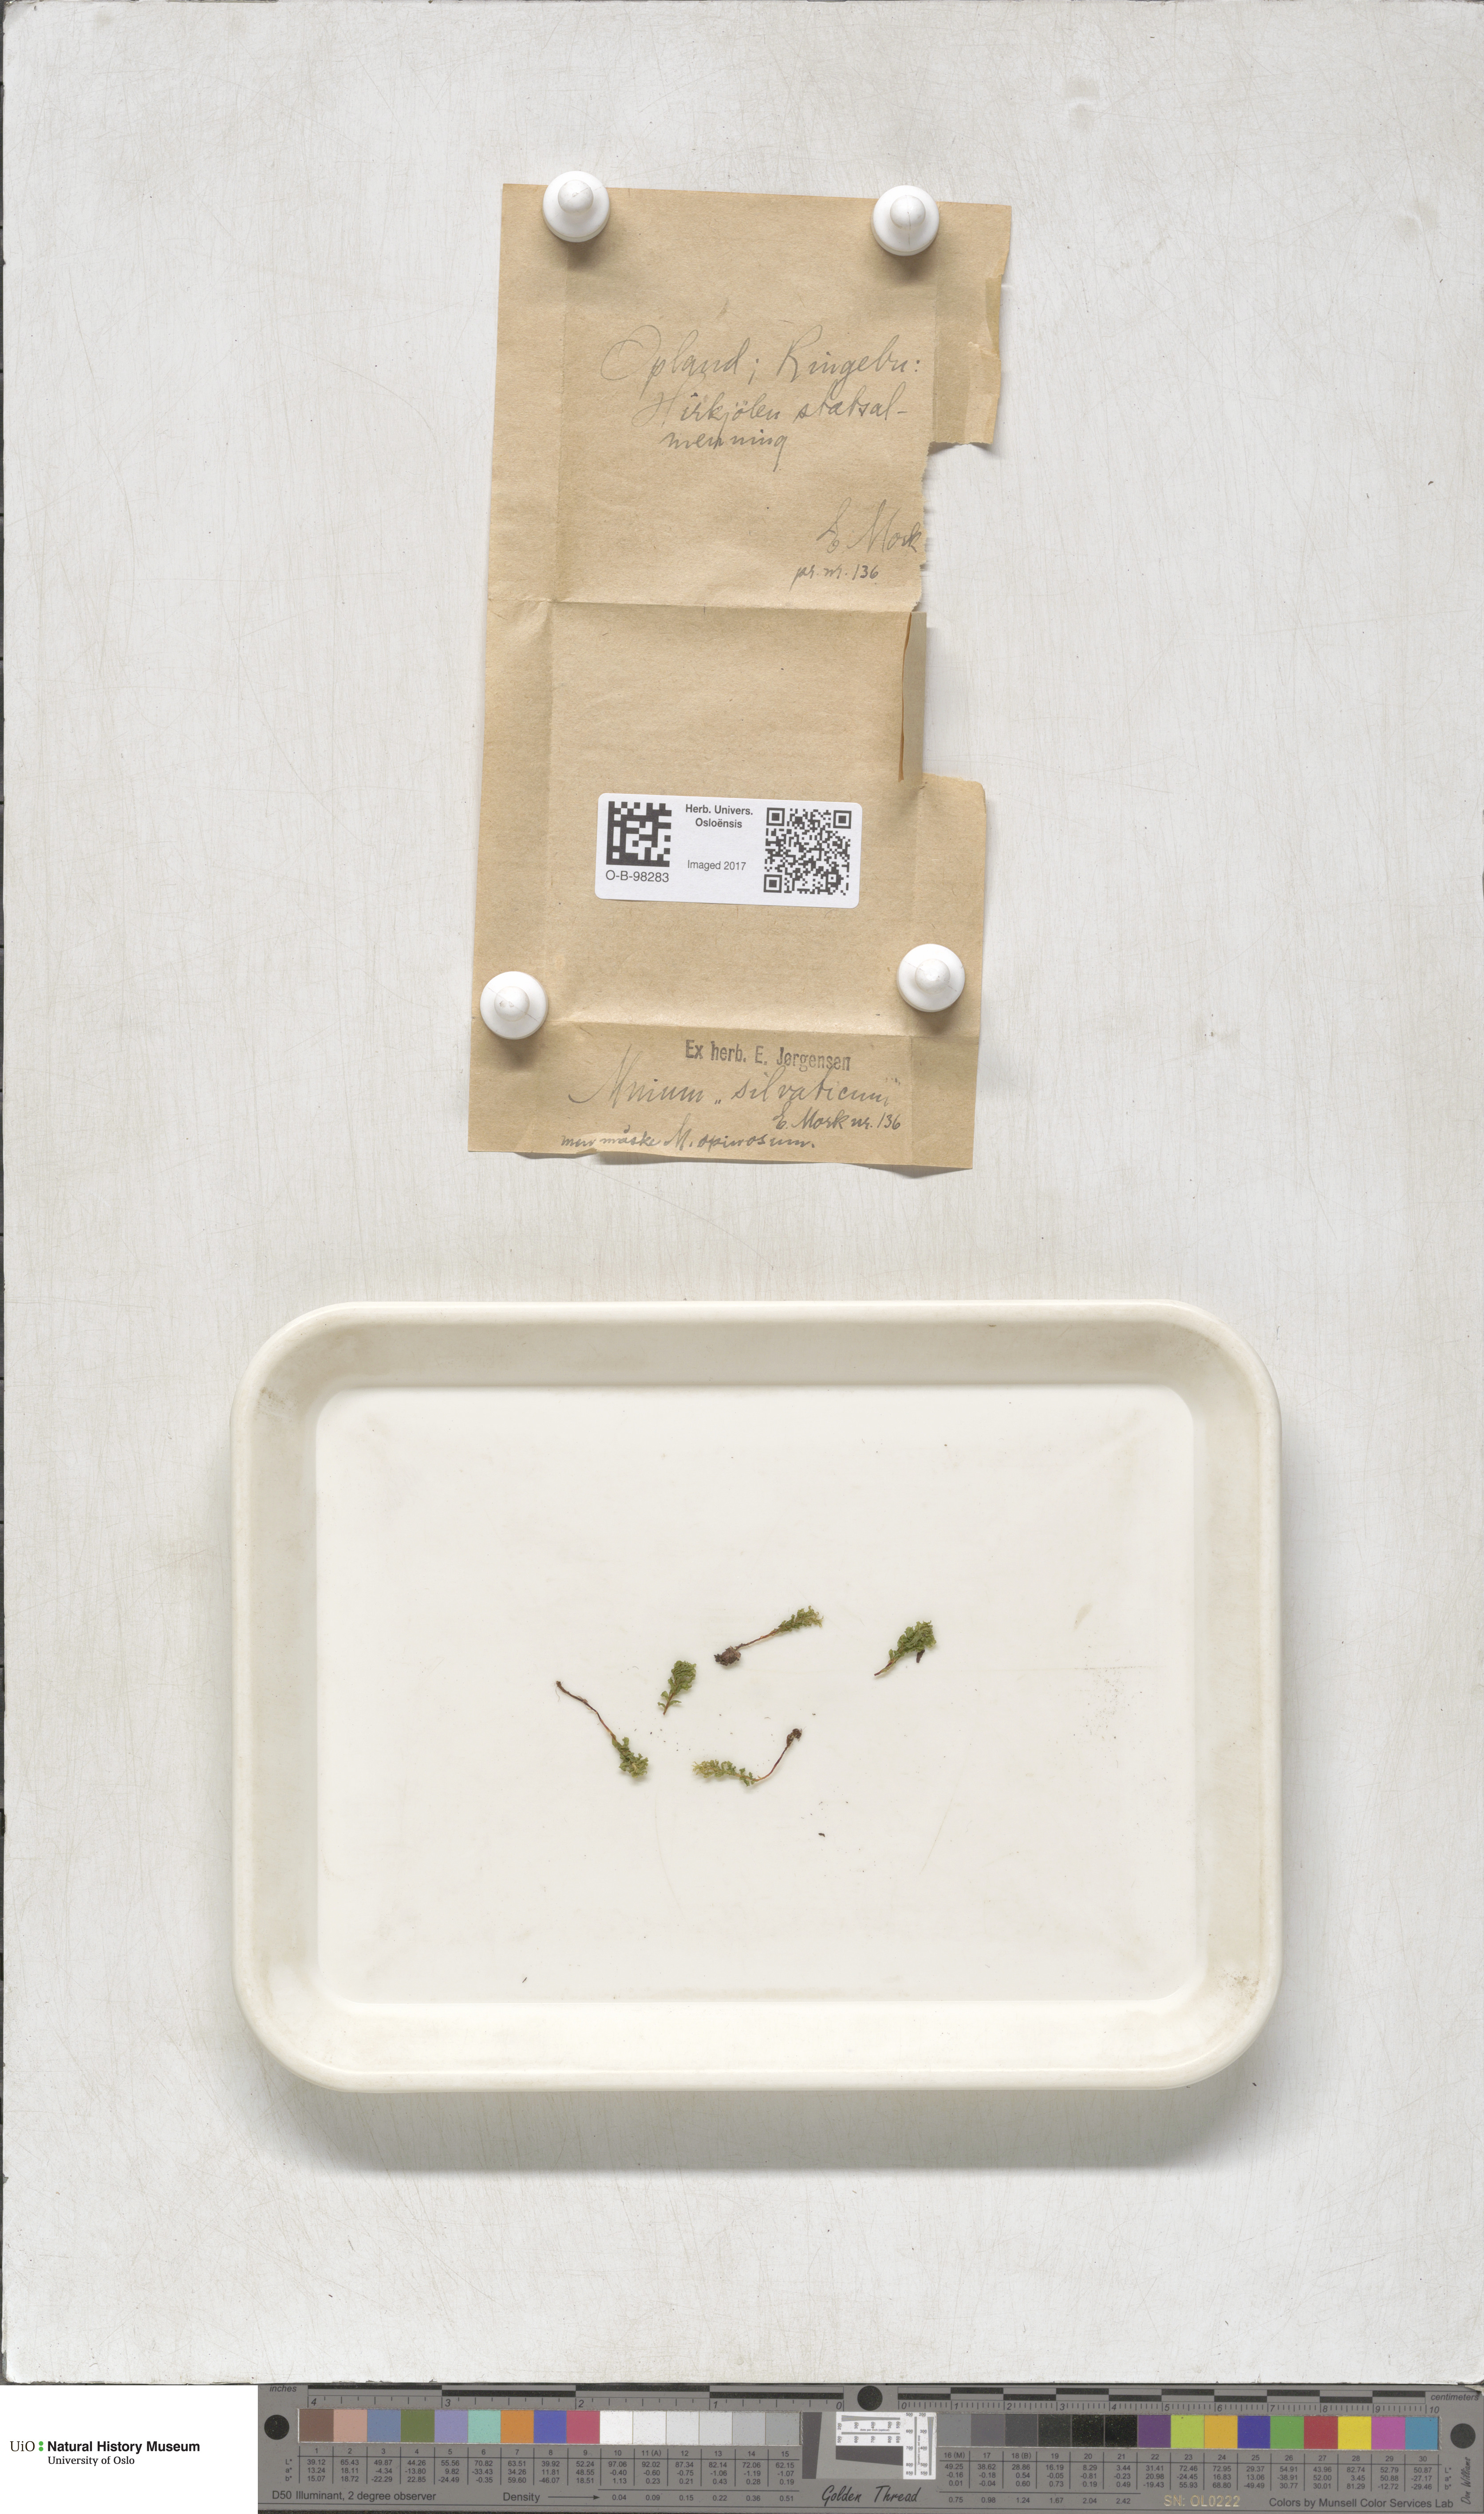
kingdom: Plantae
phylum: Bryophyta
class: Bryopsida
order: Bryales
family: Mniaceae
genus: Plagiomnium
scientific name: Plagiomnium cuspidatum
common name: Woodsy leafy moss
